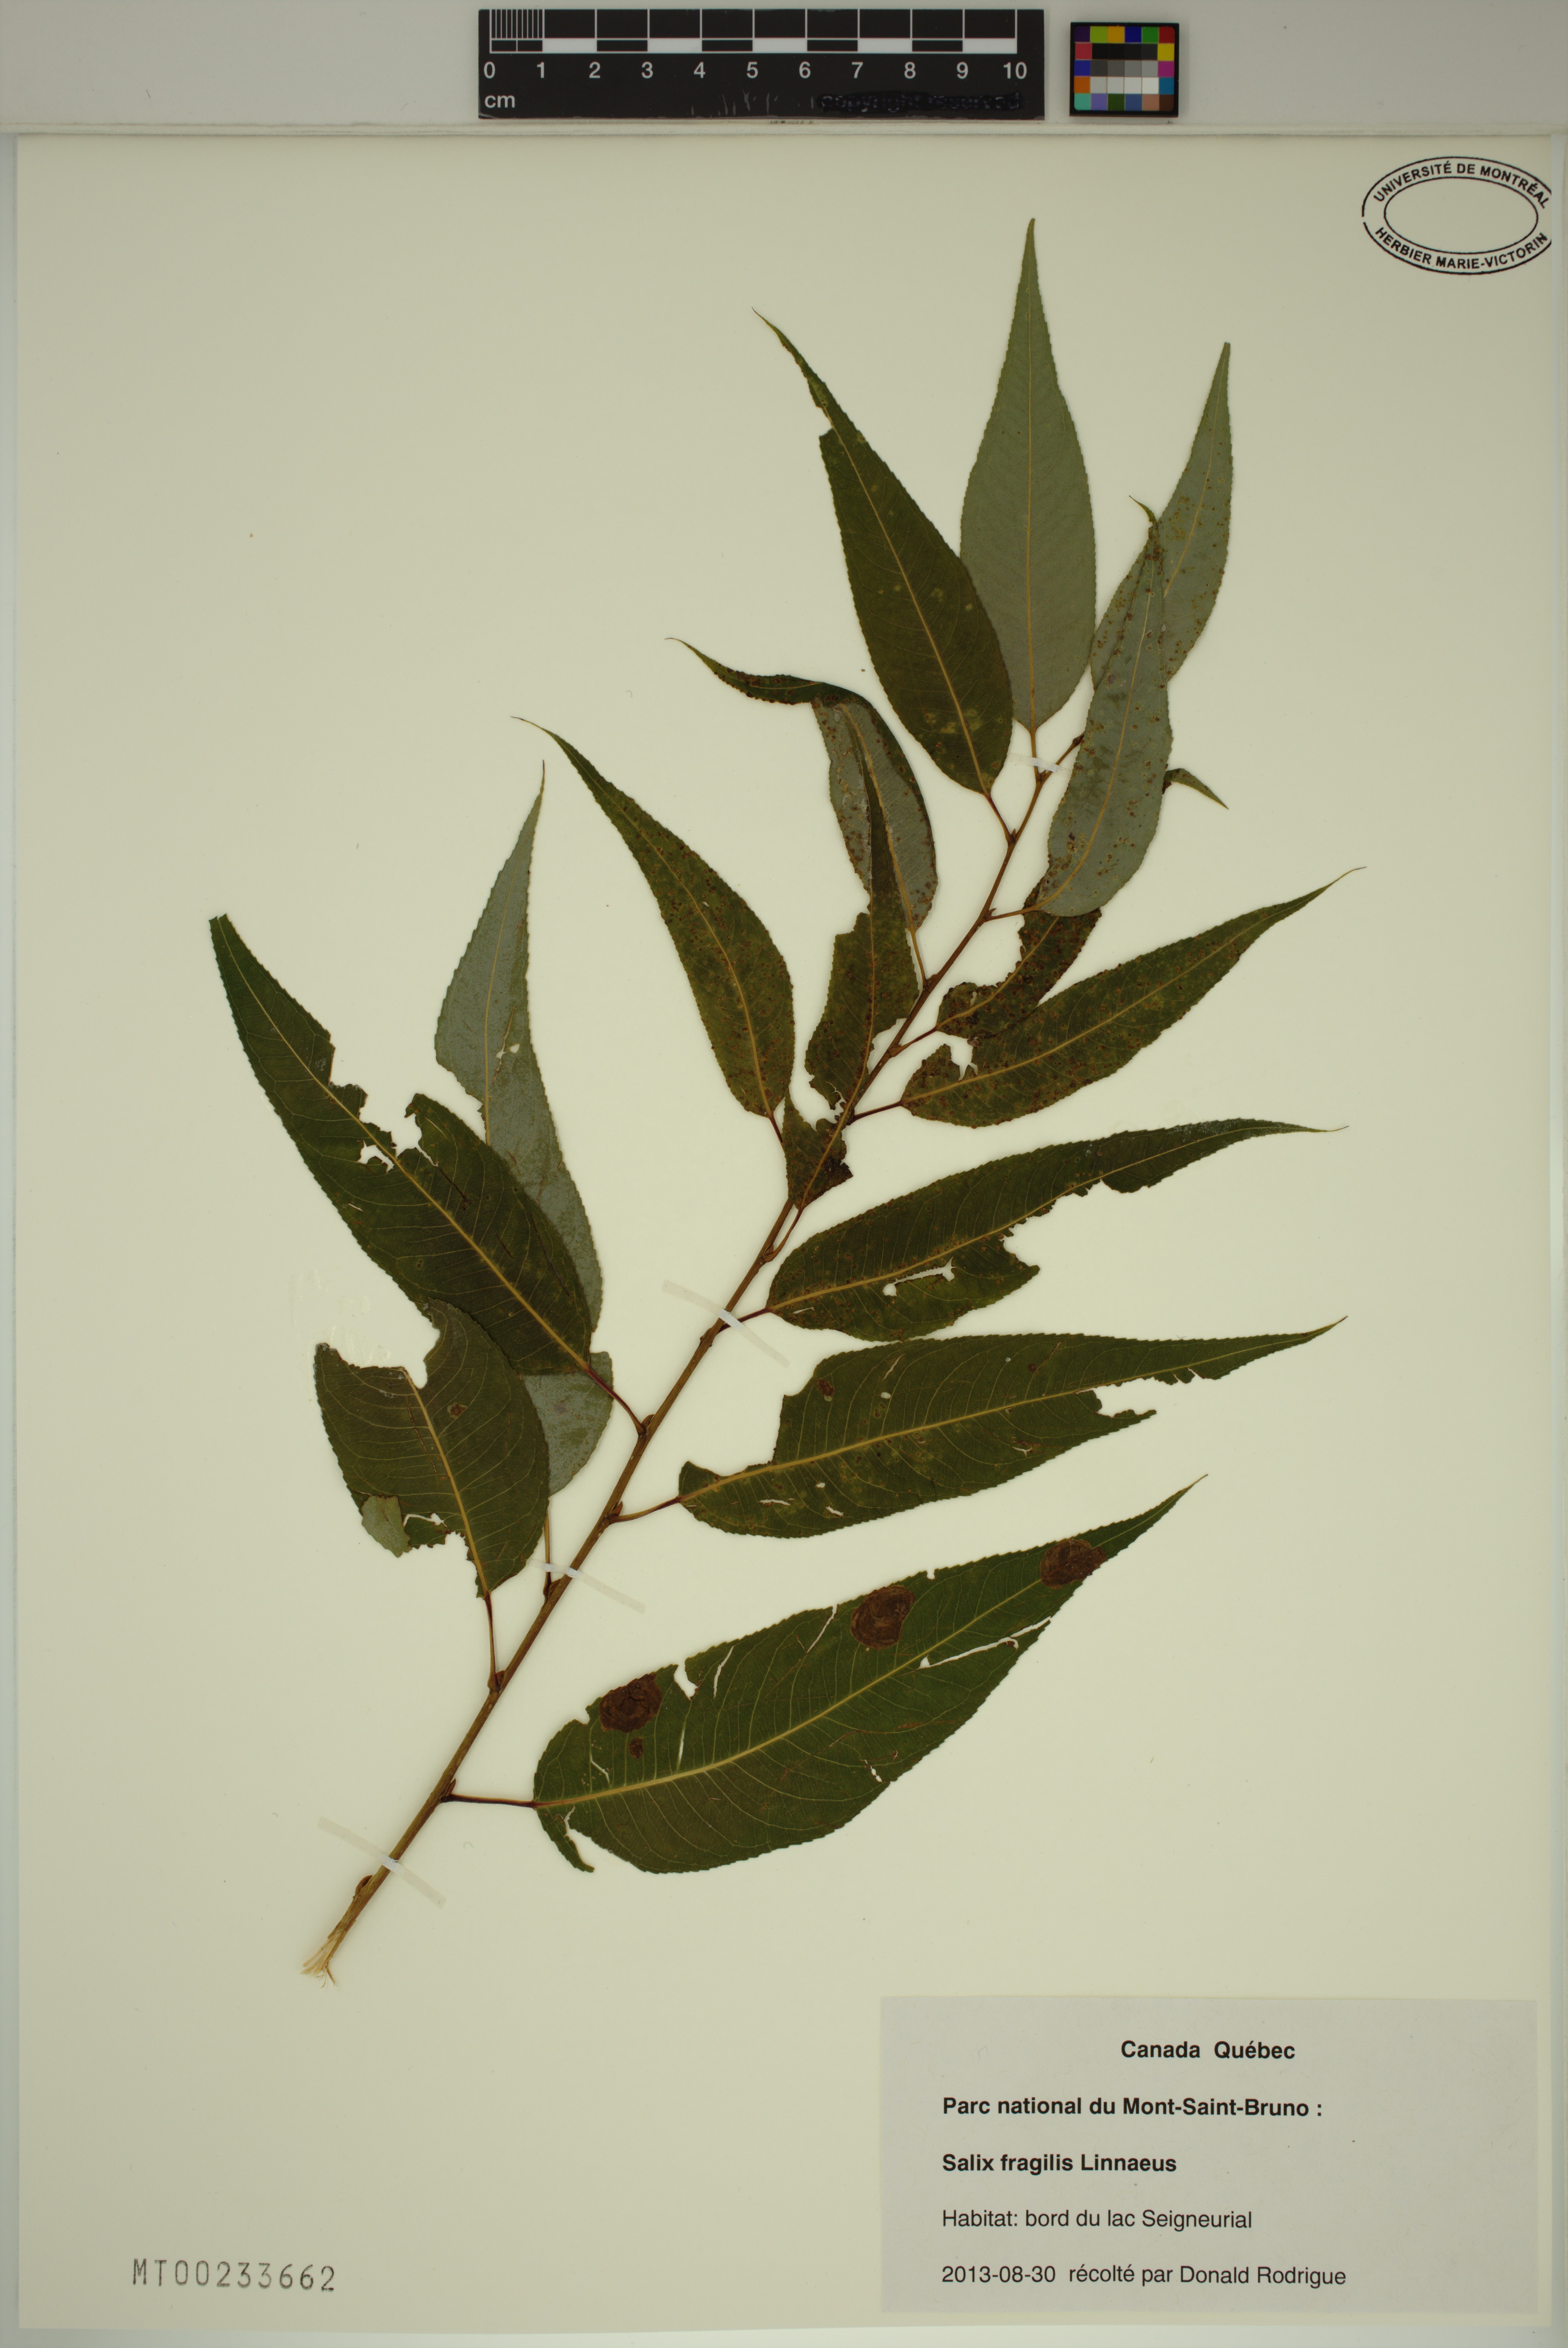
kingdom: Plantae
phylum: Tracheophyta
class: Magnoliopsida
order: Malpighiales
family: Salicaceae
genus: Salix
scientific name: Salix fragilis
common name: Crack willow
